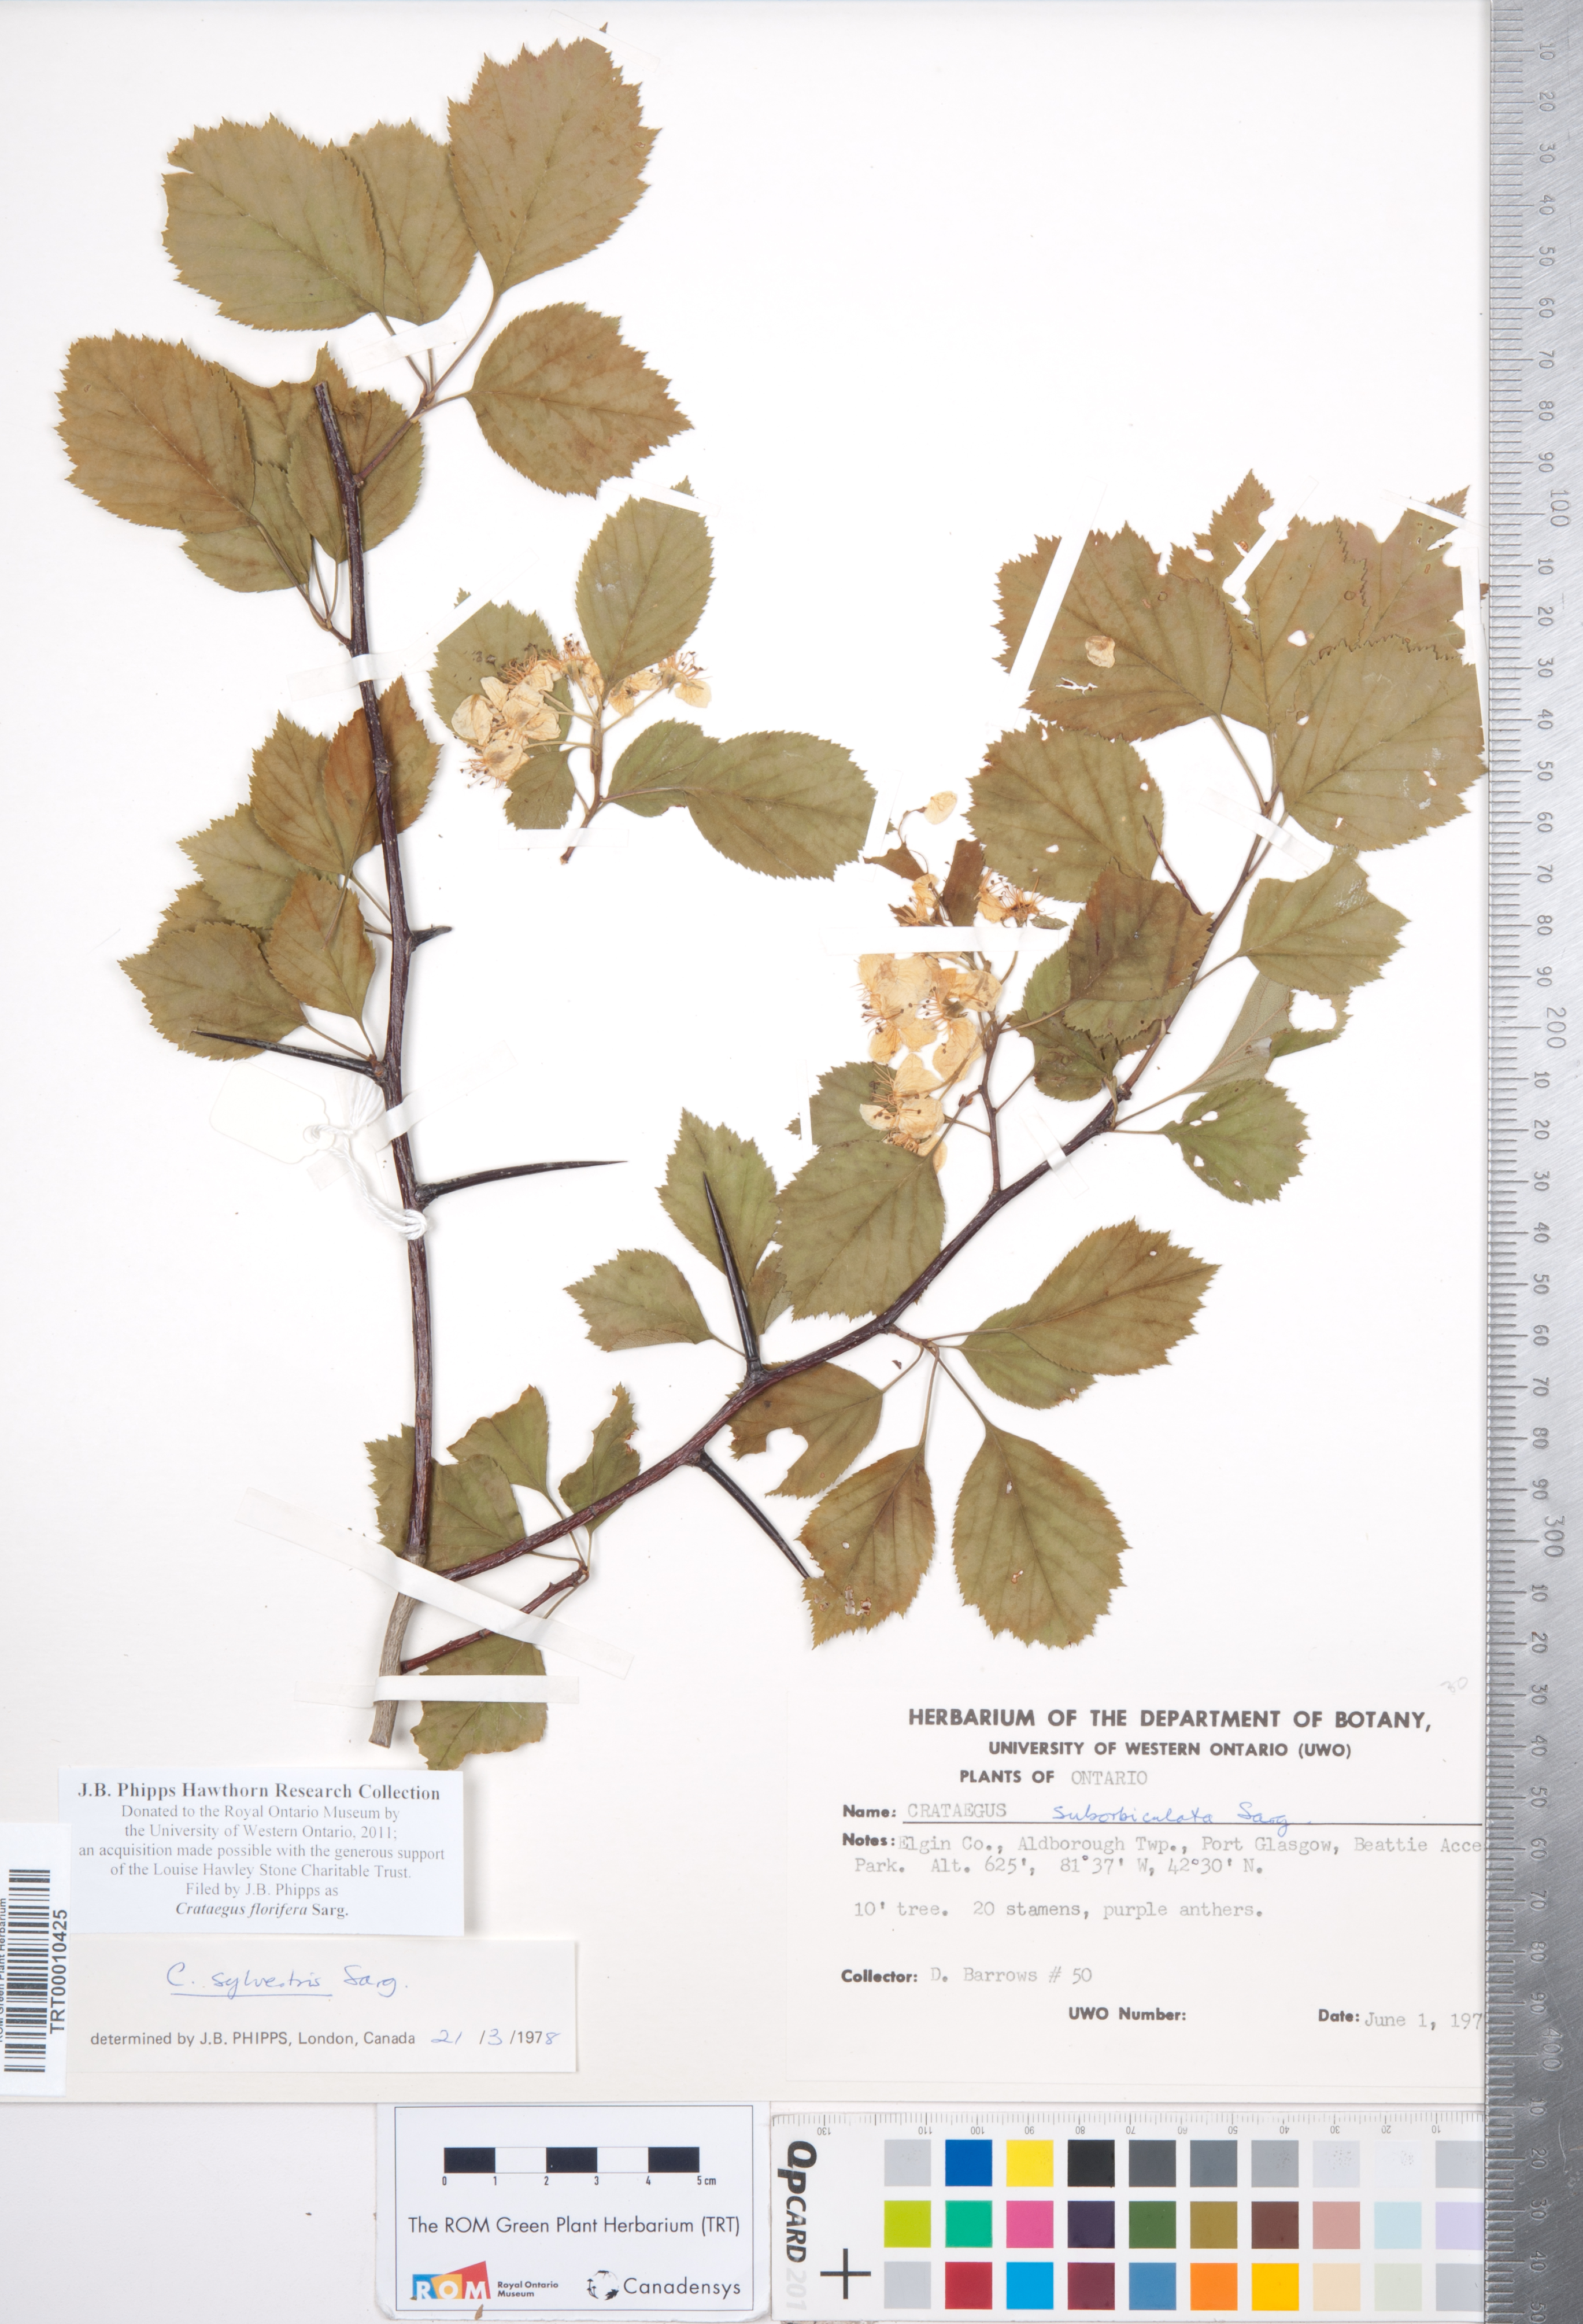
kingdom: Plantae
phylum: Tracheophyta
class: Magnoliopsida
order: Rosales
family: Rosaceae
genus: Crataegus
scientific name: Crataegus florifera
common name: Woodland hawthorn
